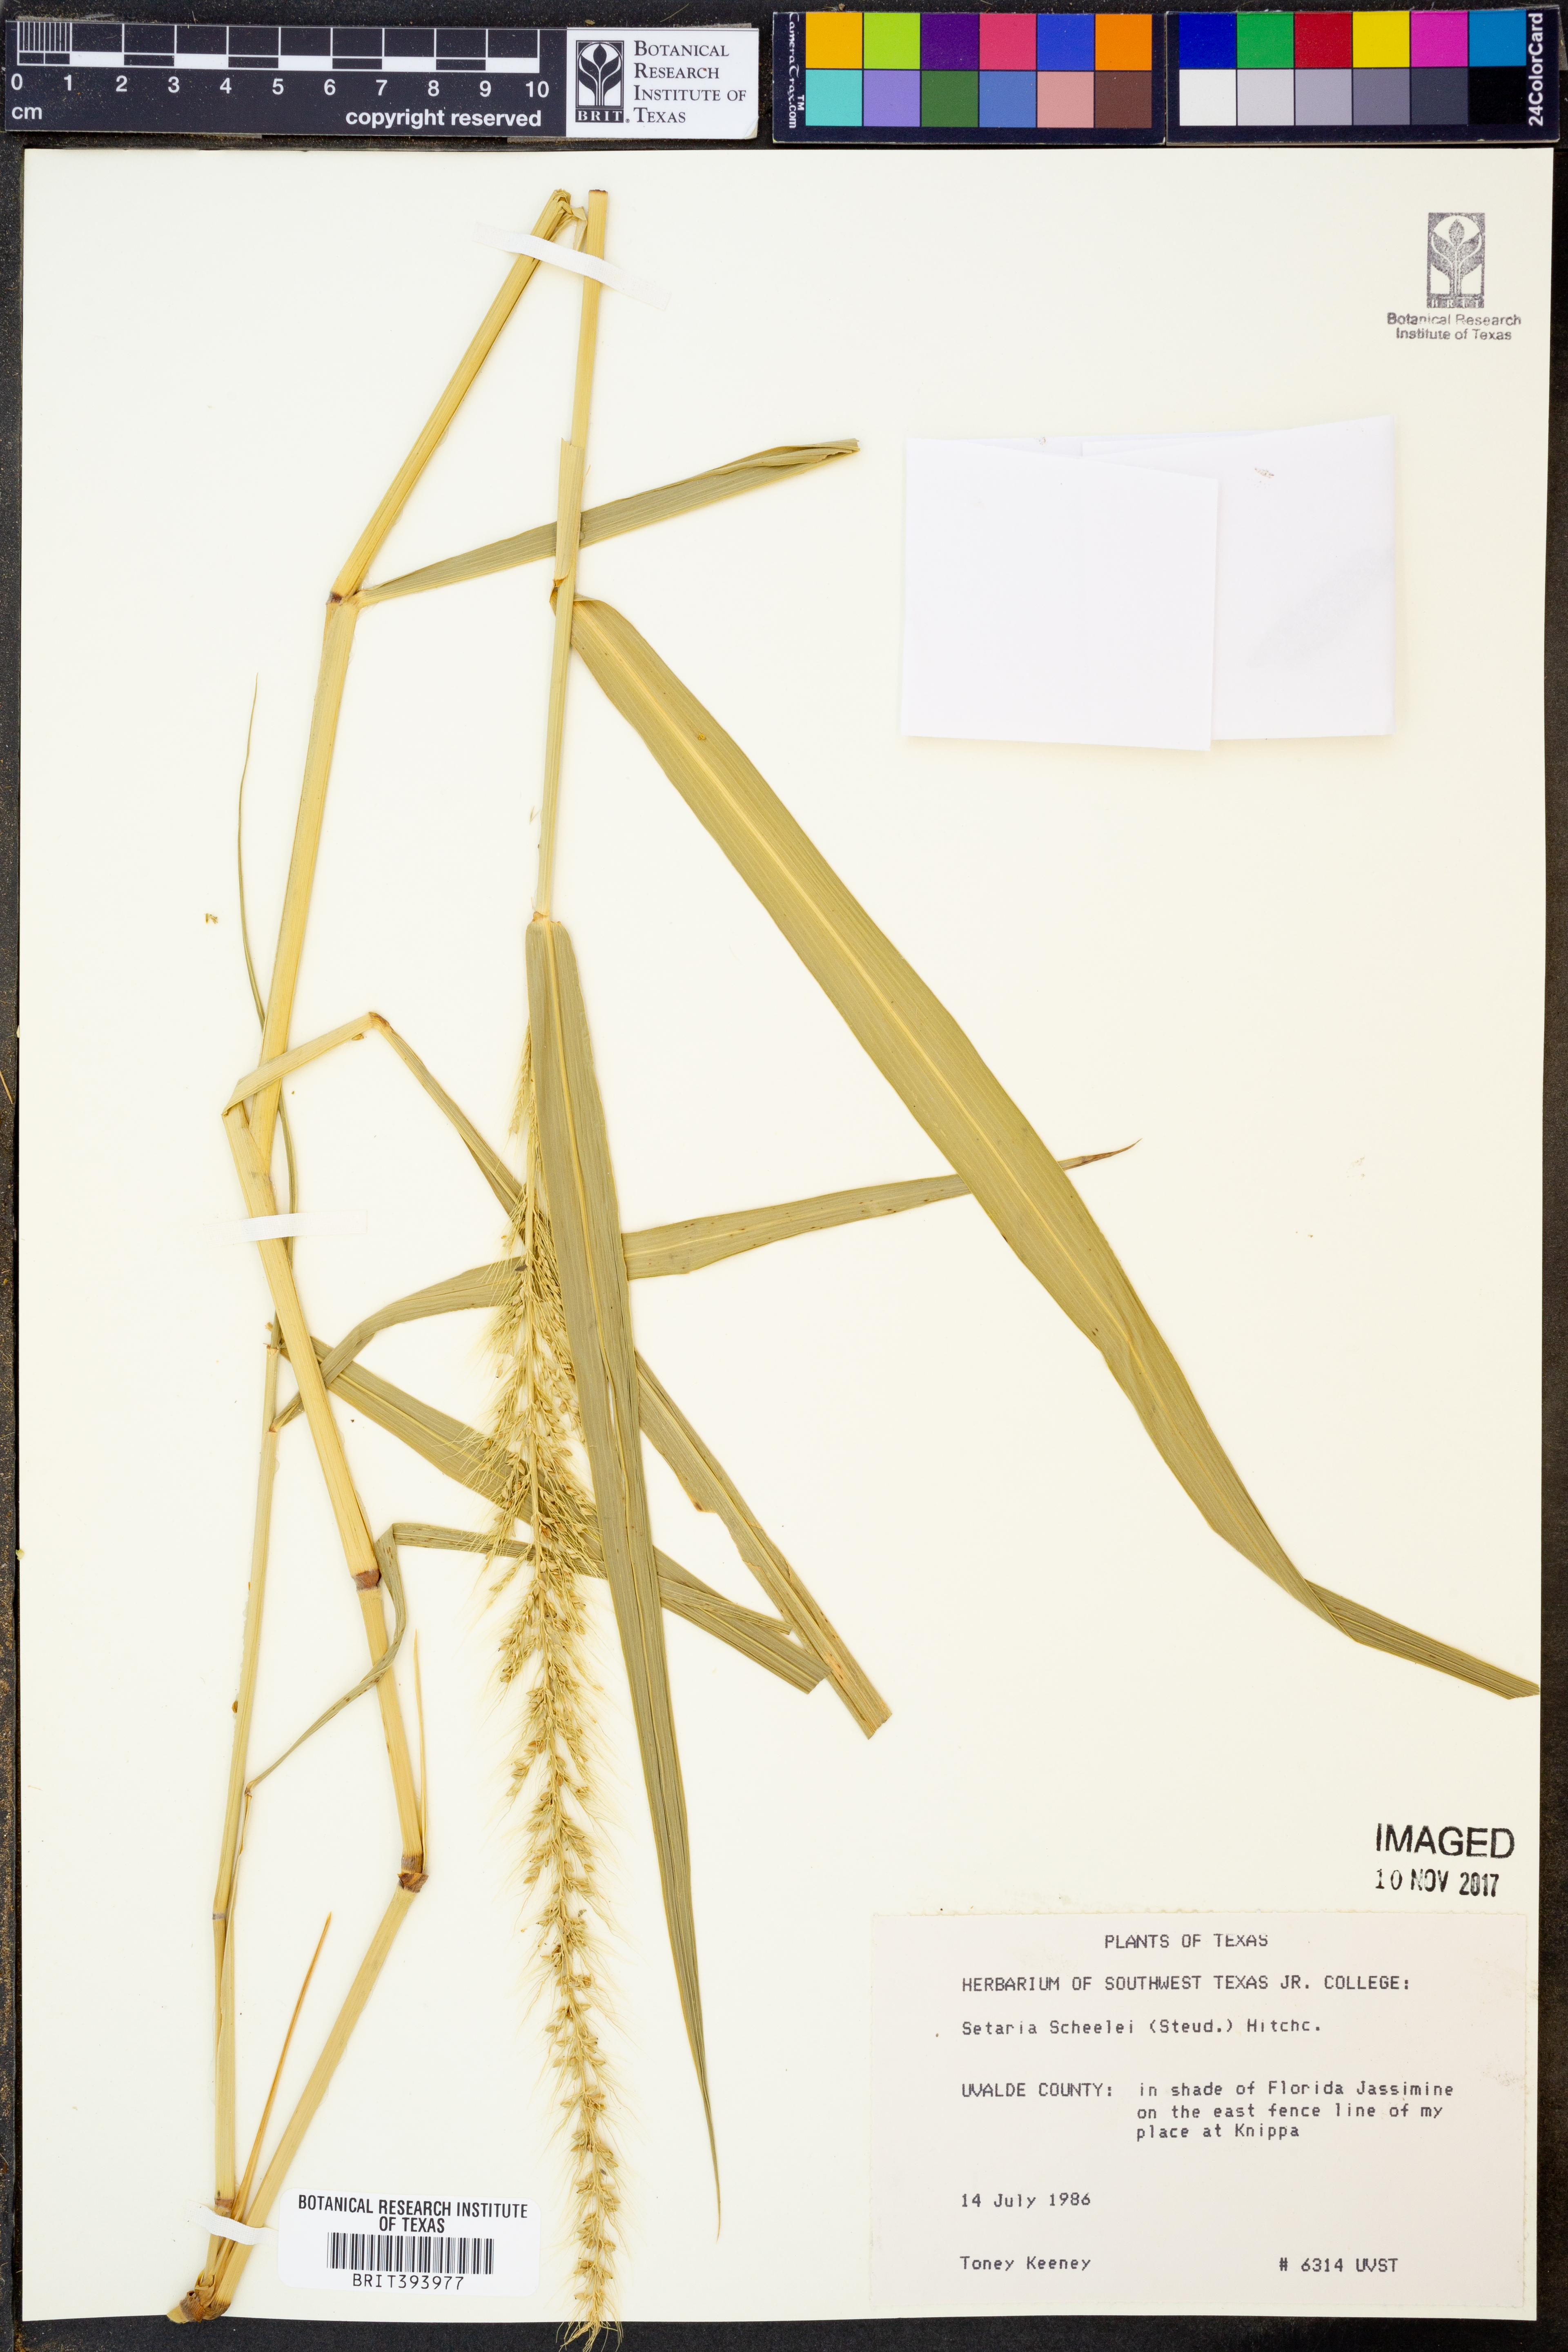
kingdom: Plantae
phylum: Tracheophyta
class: Liliopsida
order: Poales
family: Poaceae
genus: Setaria
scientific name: Setaria scheelei
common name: Southwestern bristle grass
